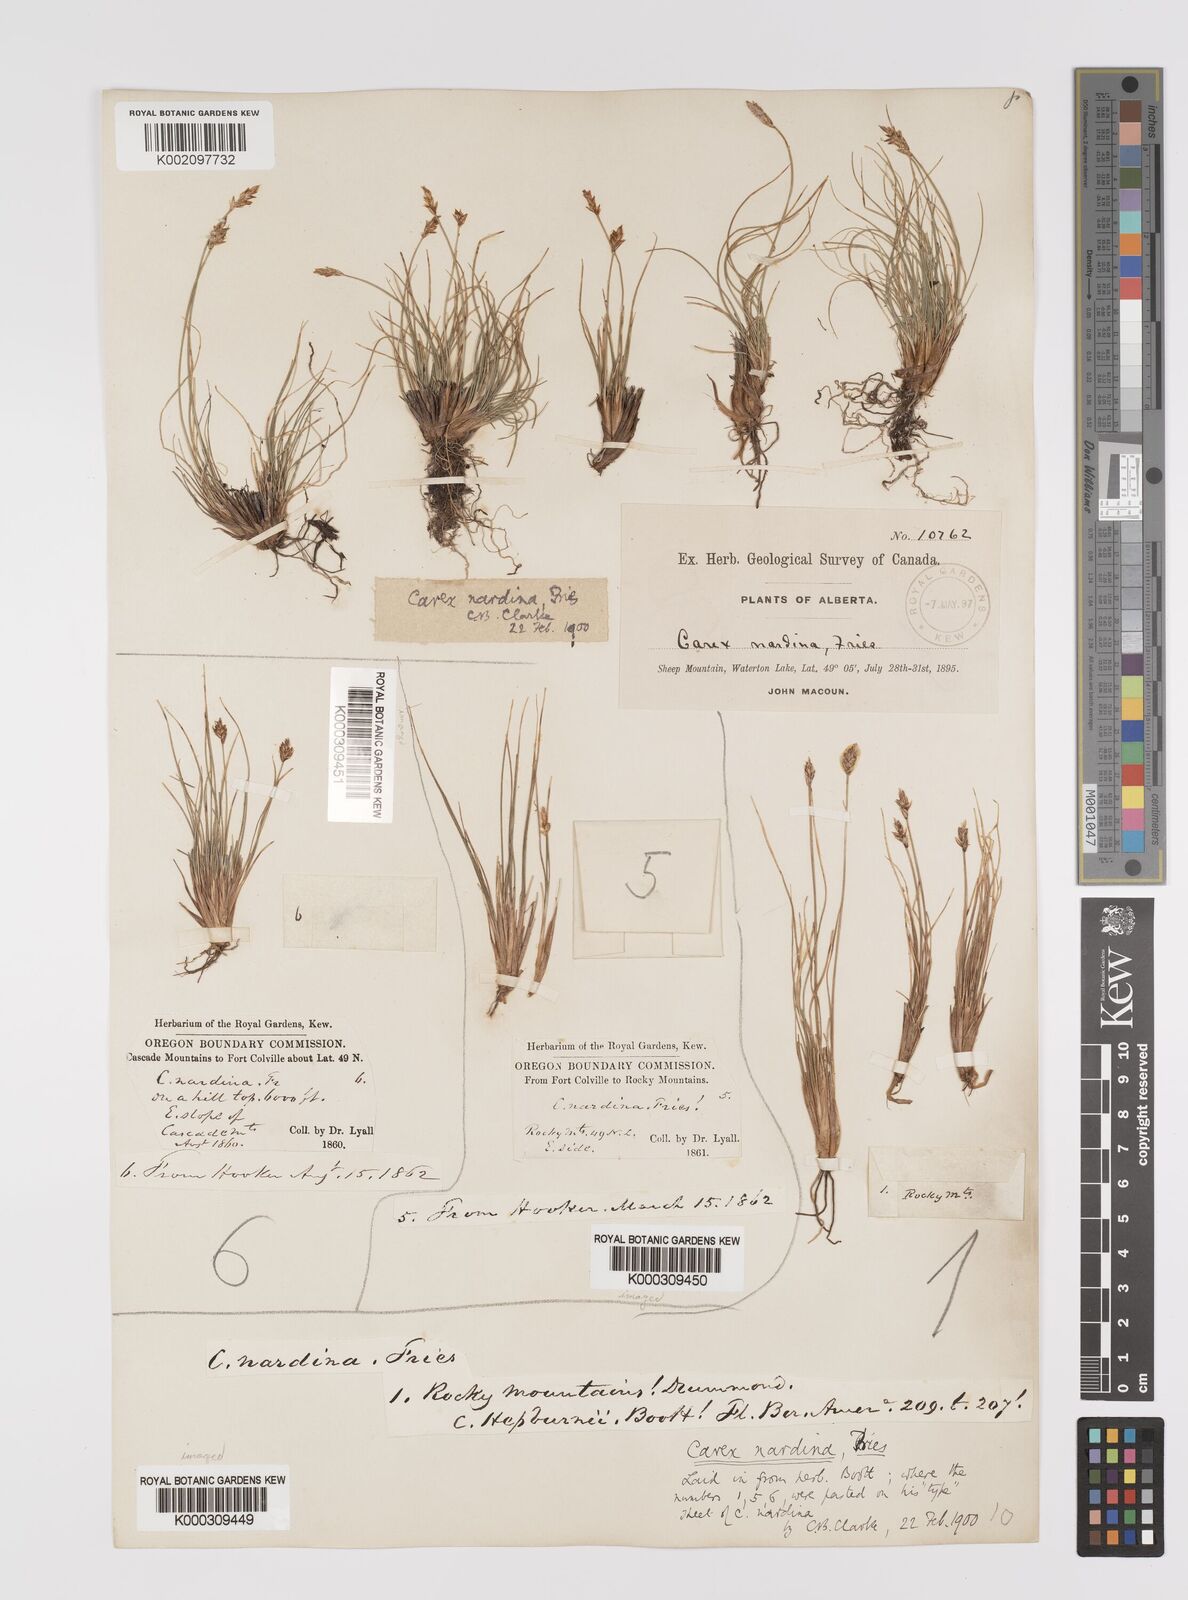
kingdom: Plantae
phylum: Tracheophyta
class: Liliopsida
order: Poales
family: Cyperaceae
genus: Carex
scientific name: Carex nardina
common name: Nard sedge
